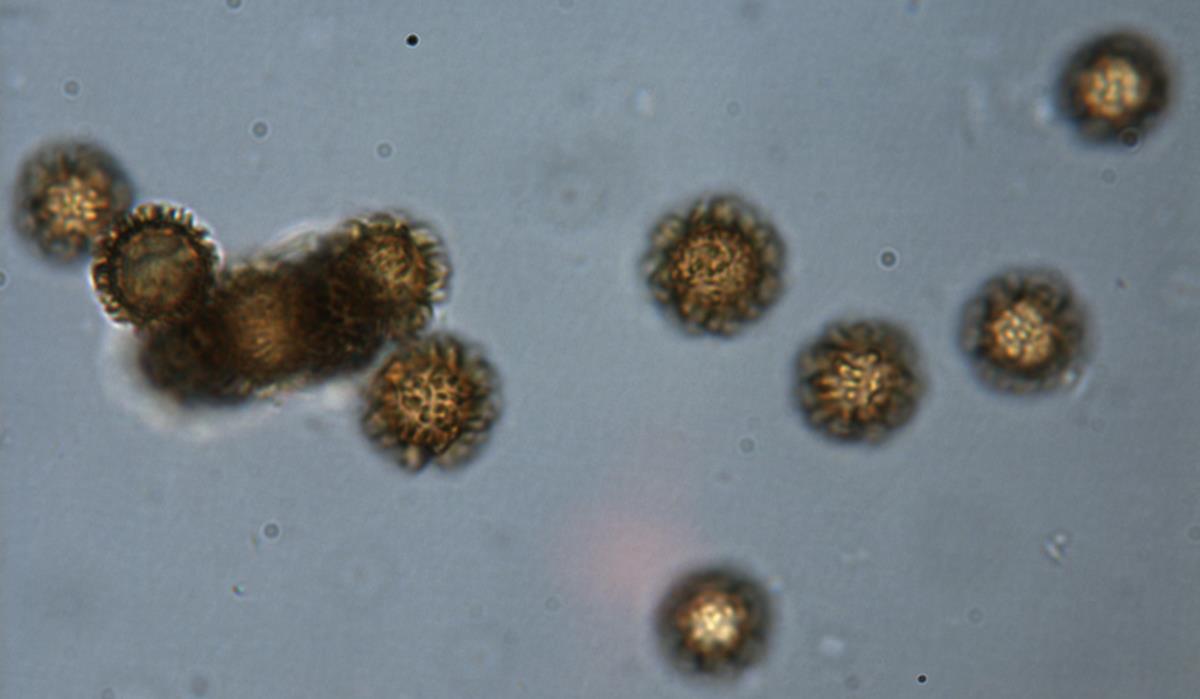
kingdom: Fungi
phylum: Basidiomycota
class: Agaricomycetes
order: Boletales
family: Sclerodermataceae
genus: Pisolithus
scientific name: Pisolithus marmoratus
